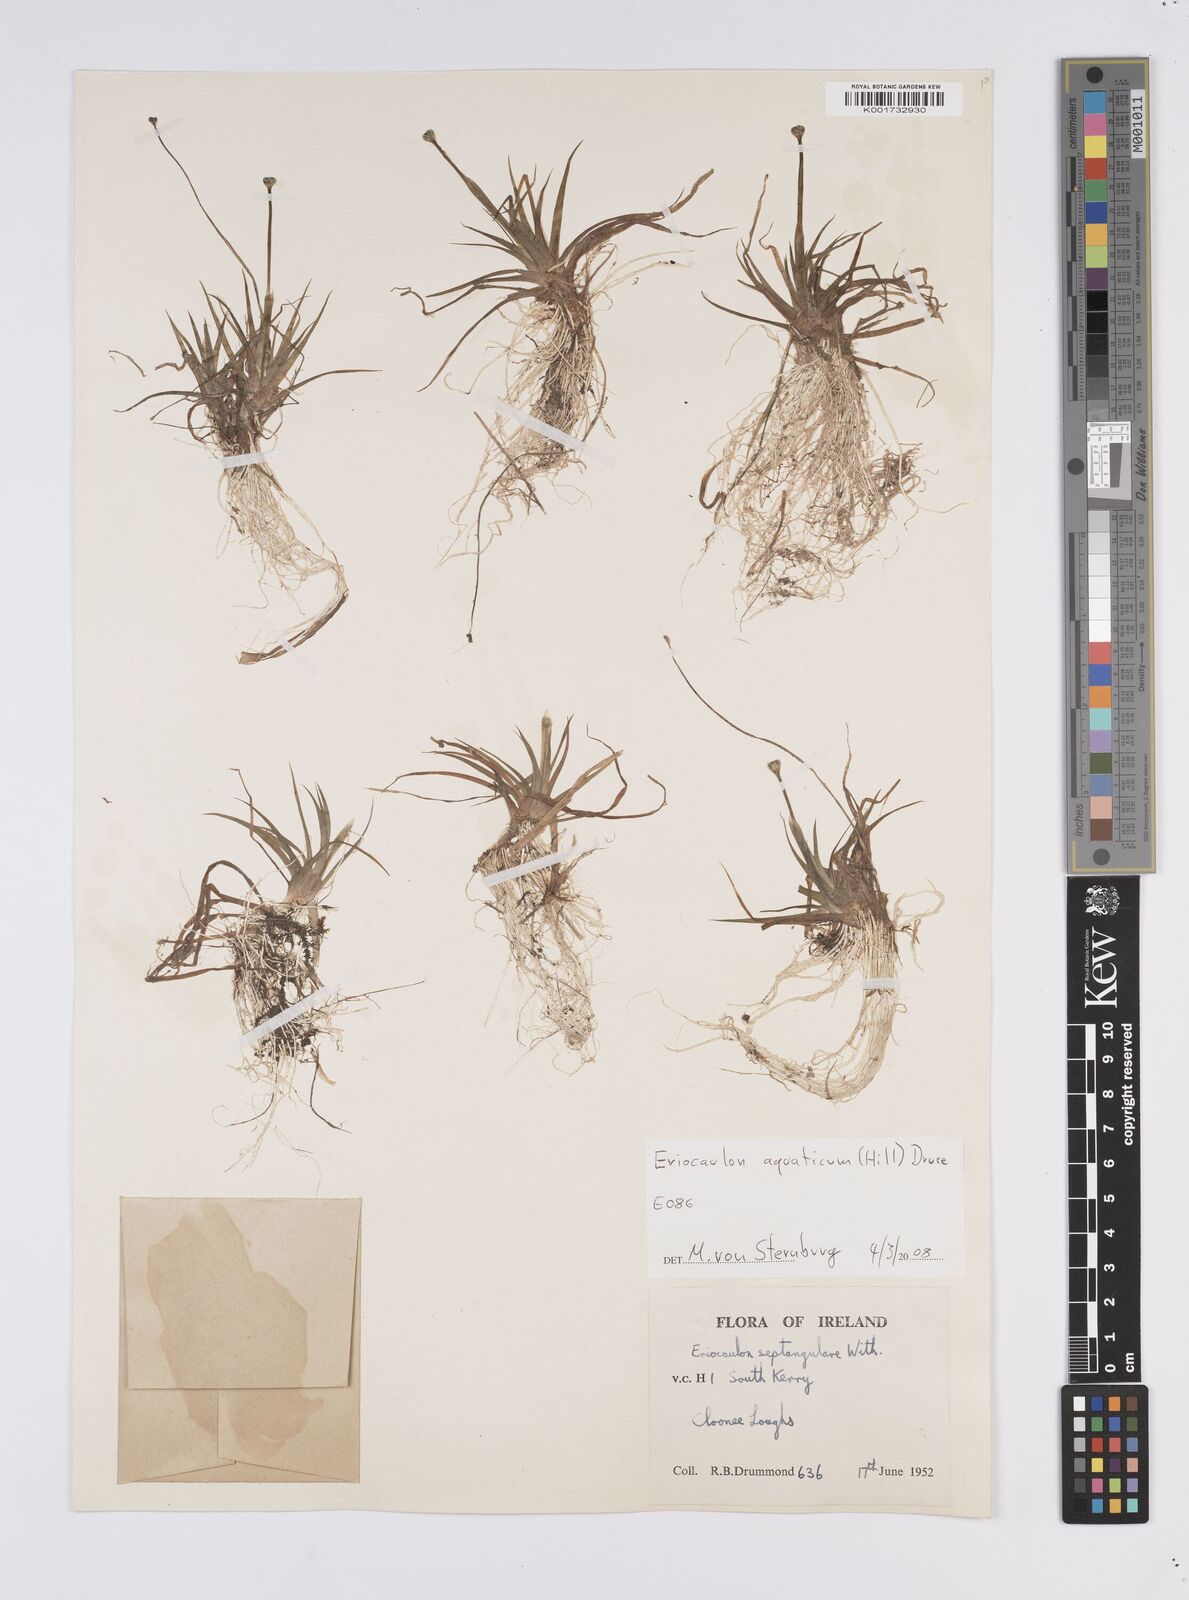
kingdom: Plantae
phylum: Tracheophyta
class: Liliopsida
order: Poales
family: Eriocaulaceae
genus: Eriocaulon
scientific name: Eriocaulon aquaticum
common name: Pipewort
